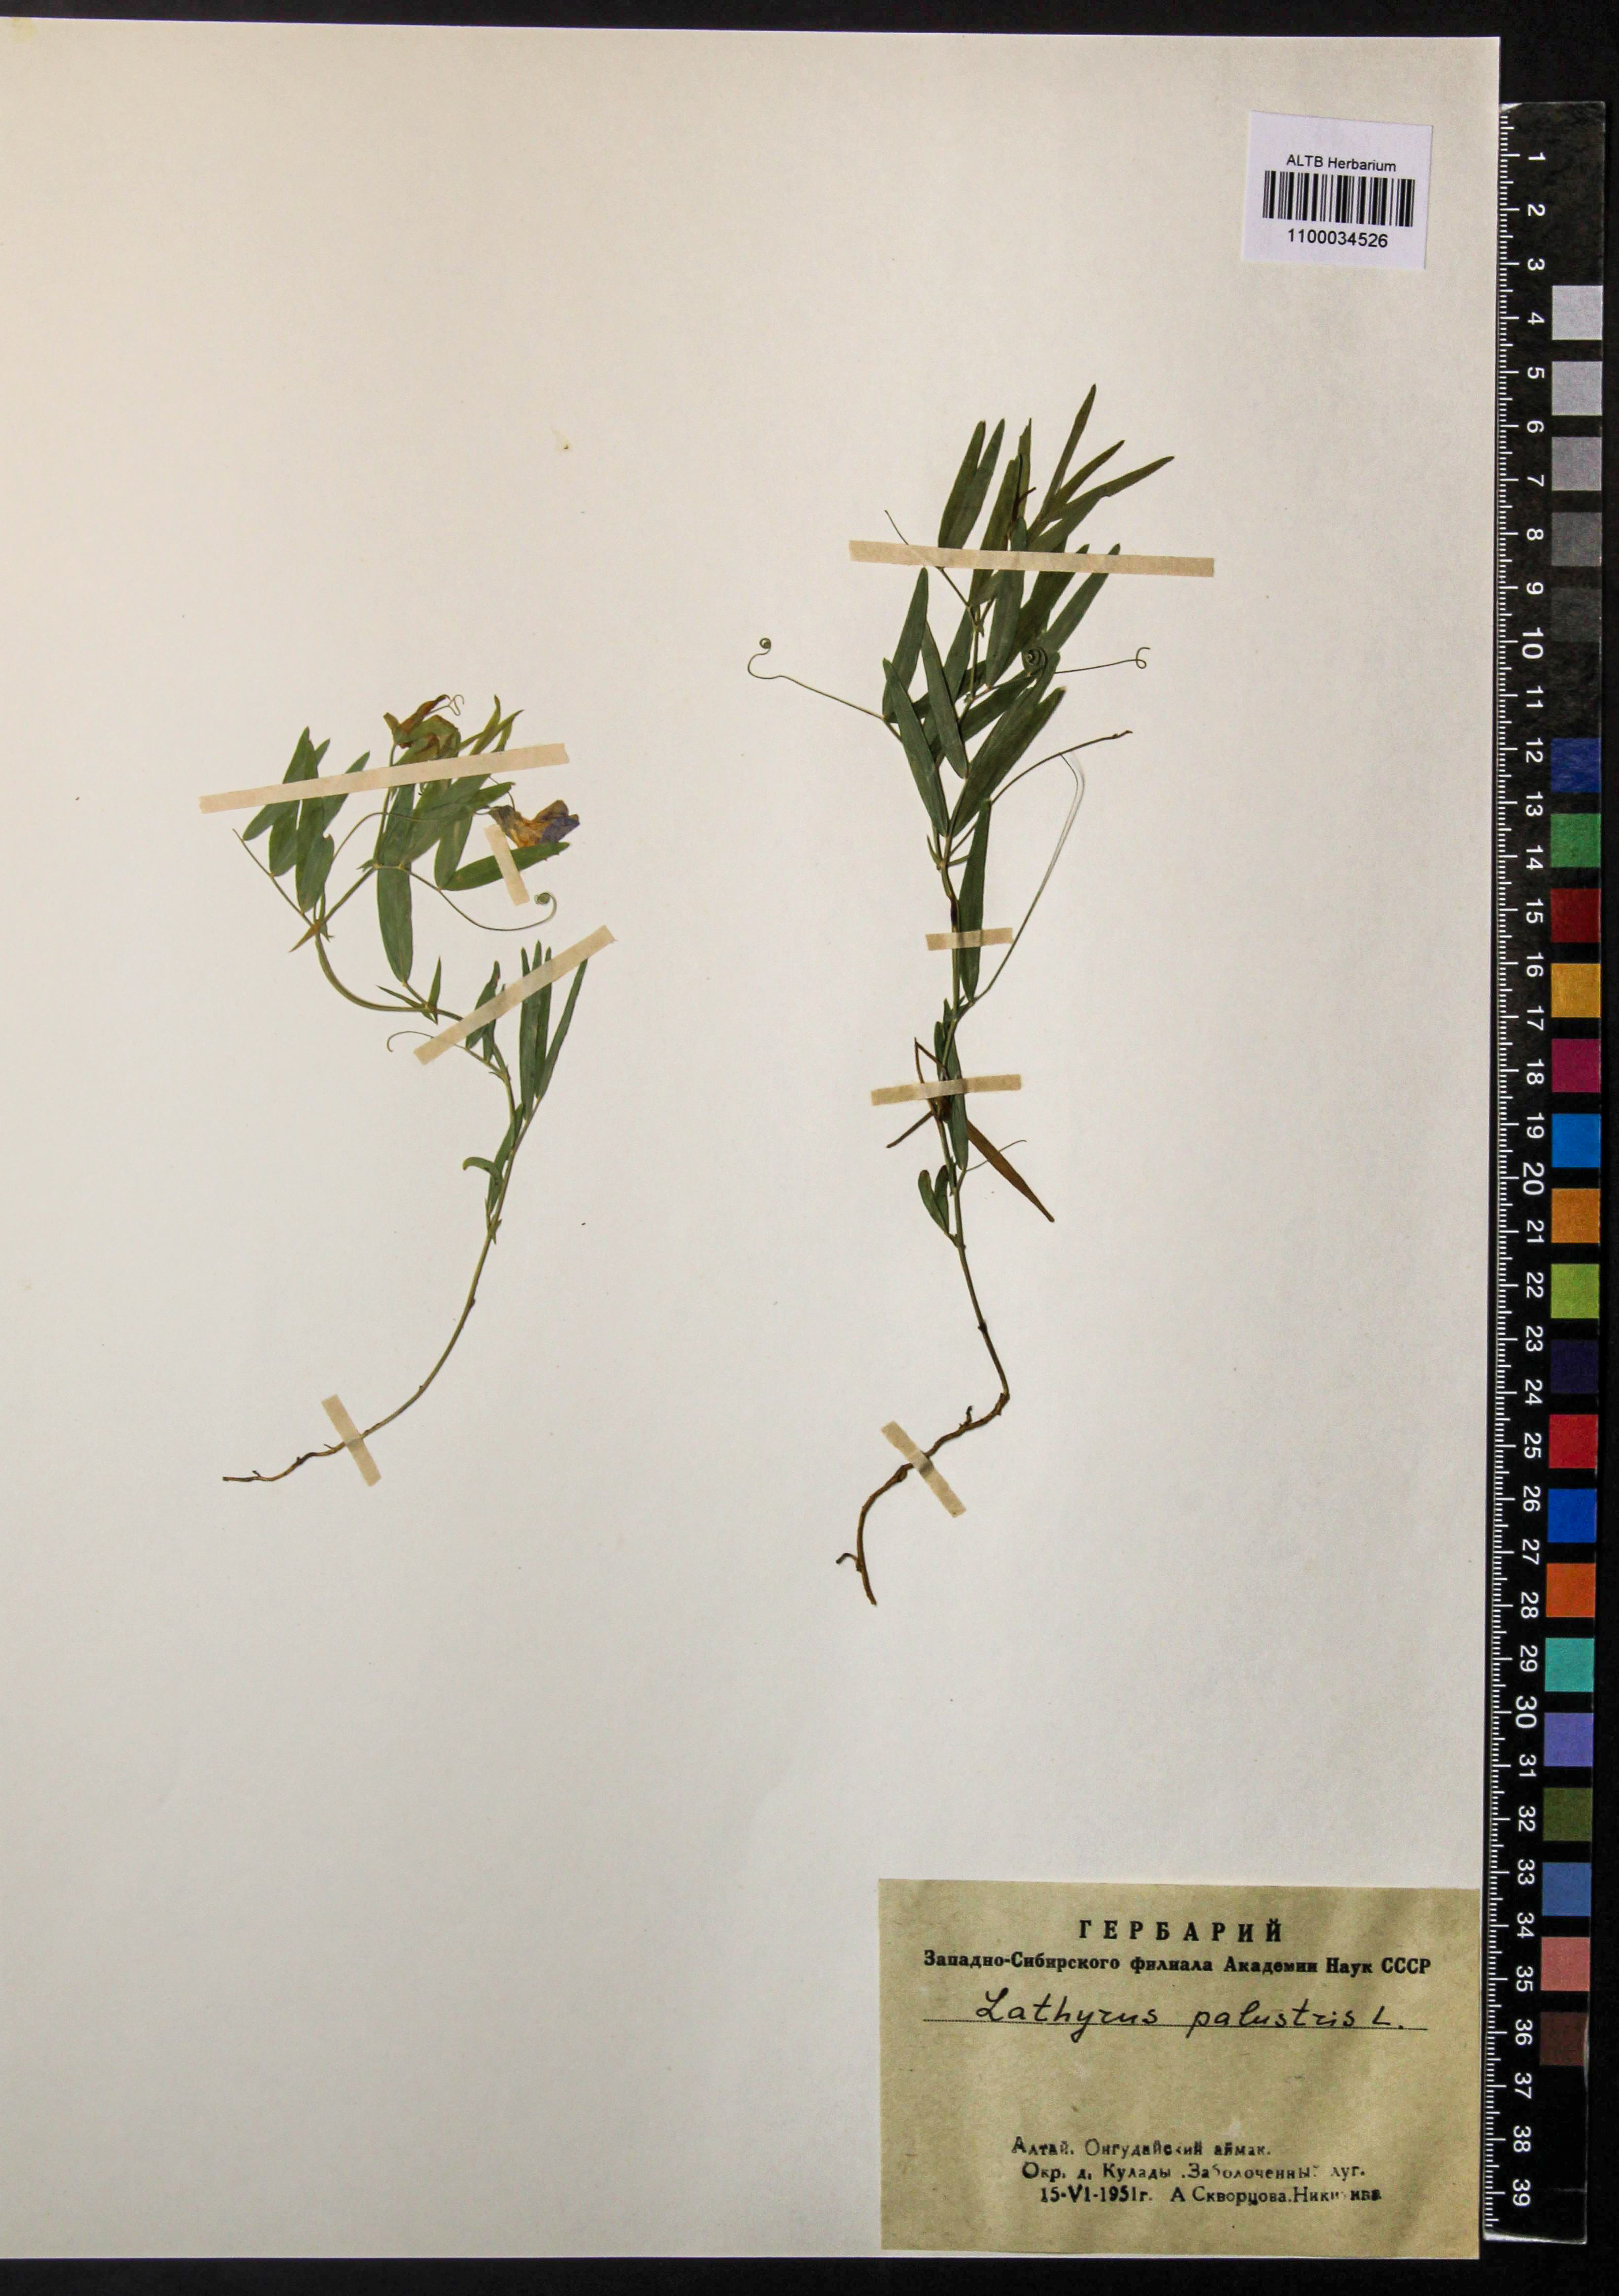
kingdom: Plantae
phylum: Tracheophyta
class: Magnoliopsida
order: Fabales
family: Fabaceae
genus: Lathyrus
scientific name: Lathyrus palustris
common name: Marsh pea
